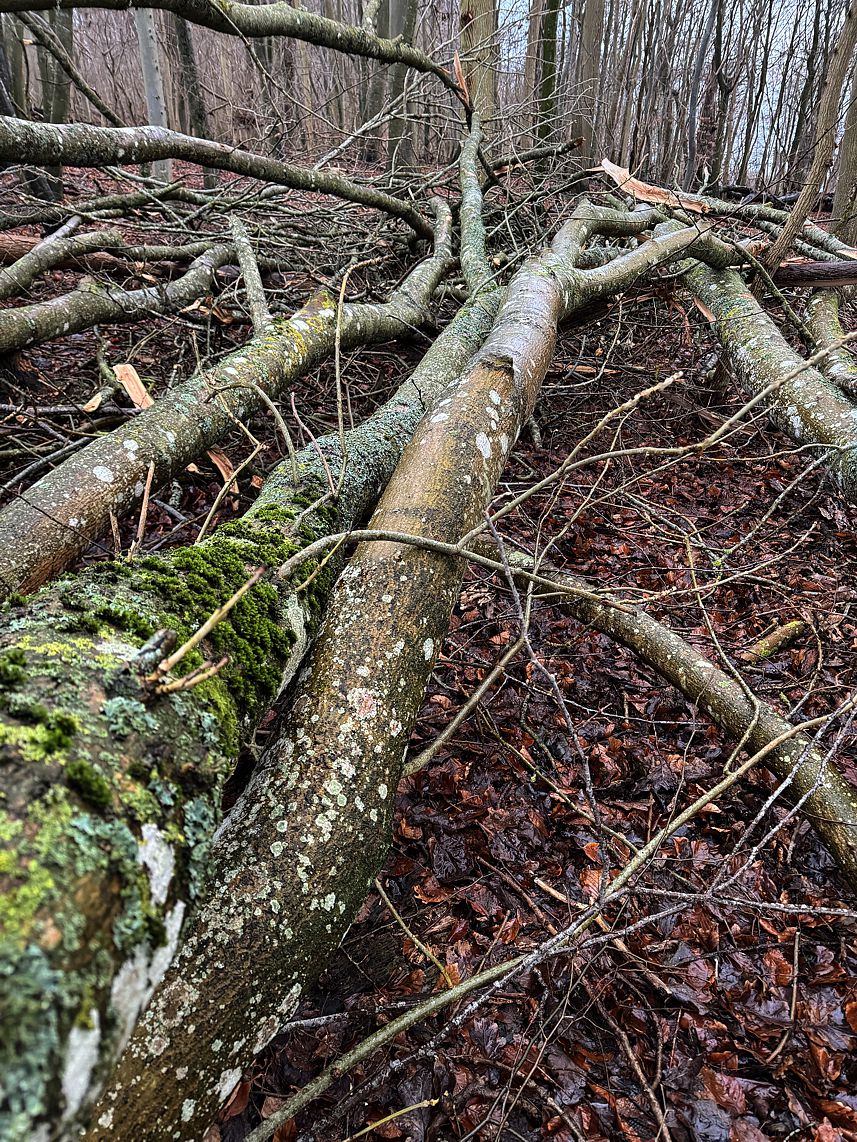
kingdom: Fungi
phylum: Ascomycota
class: Lecanoromycetes
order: Lecanorales
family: Parmeliaceae
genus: Parmelia
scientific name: Parmelia sulcata
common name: rynket skållav
